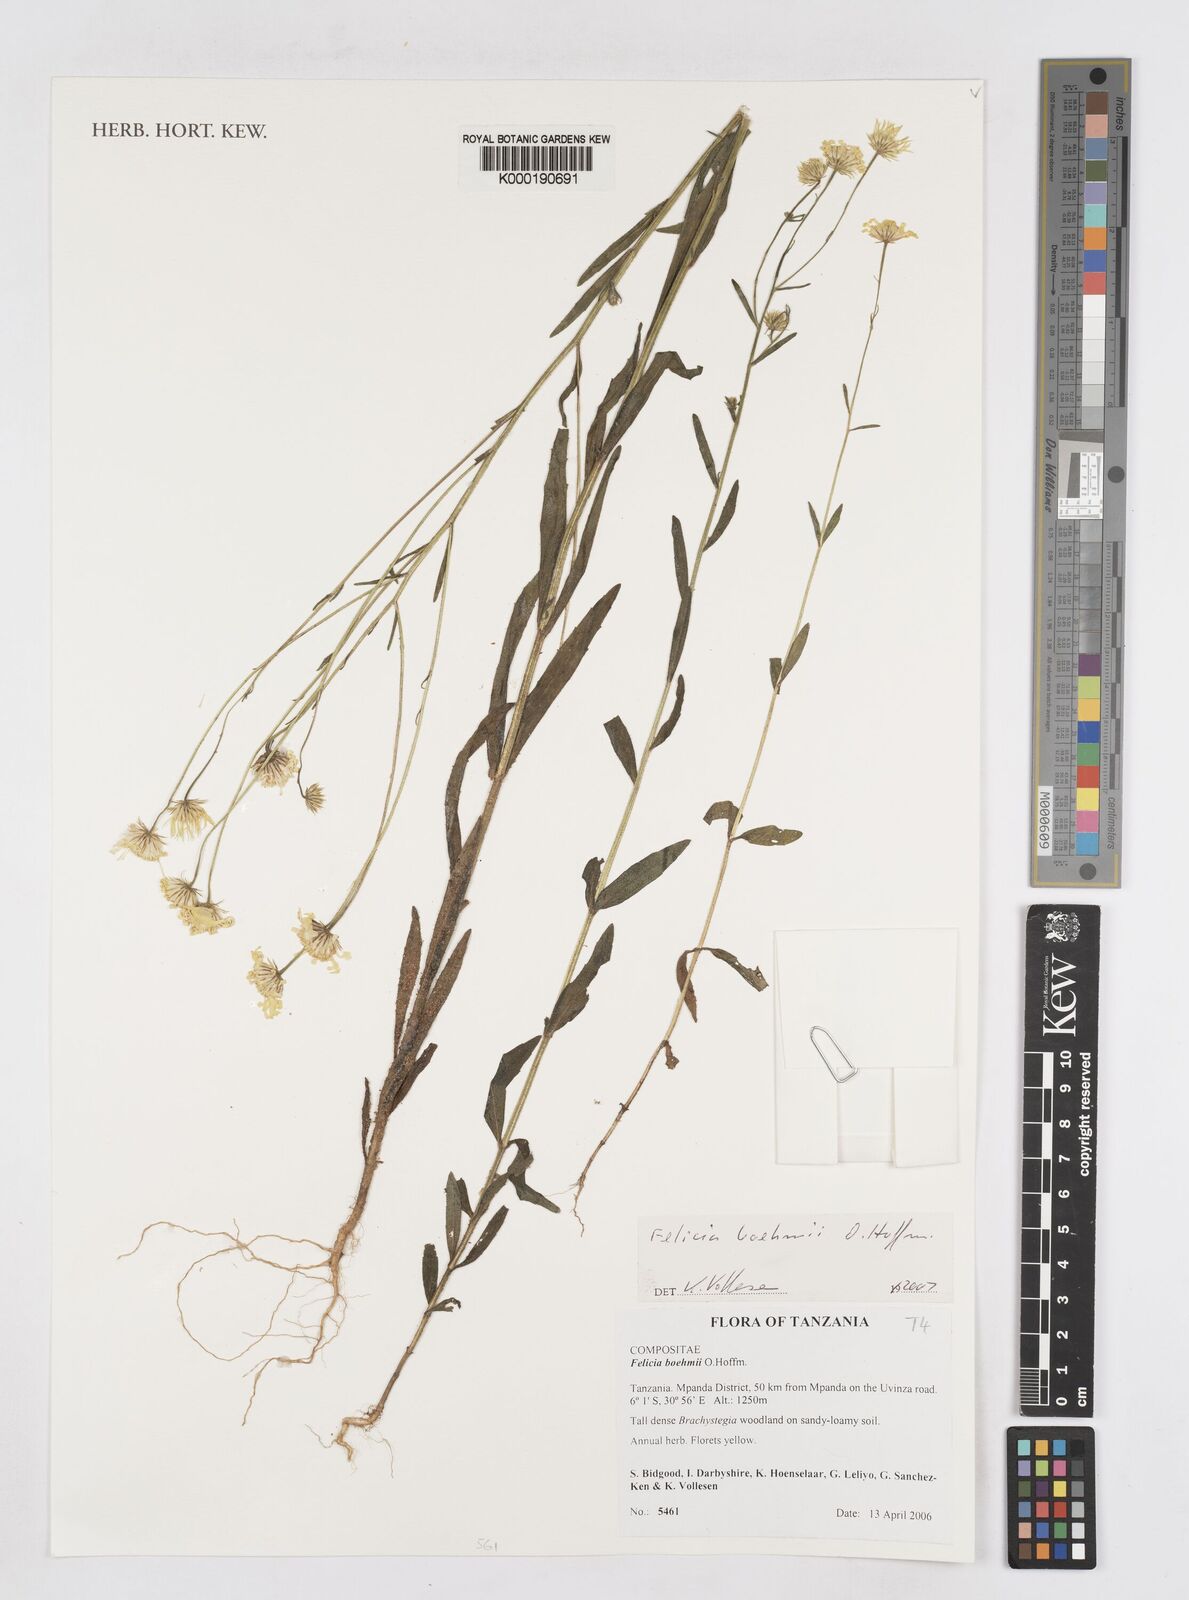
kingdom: Plantae
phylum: Tracheophyta
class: Magnoliopsida
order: Asterales
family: Asteraceae
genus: Felicia
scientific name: Felicia boehmii
